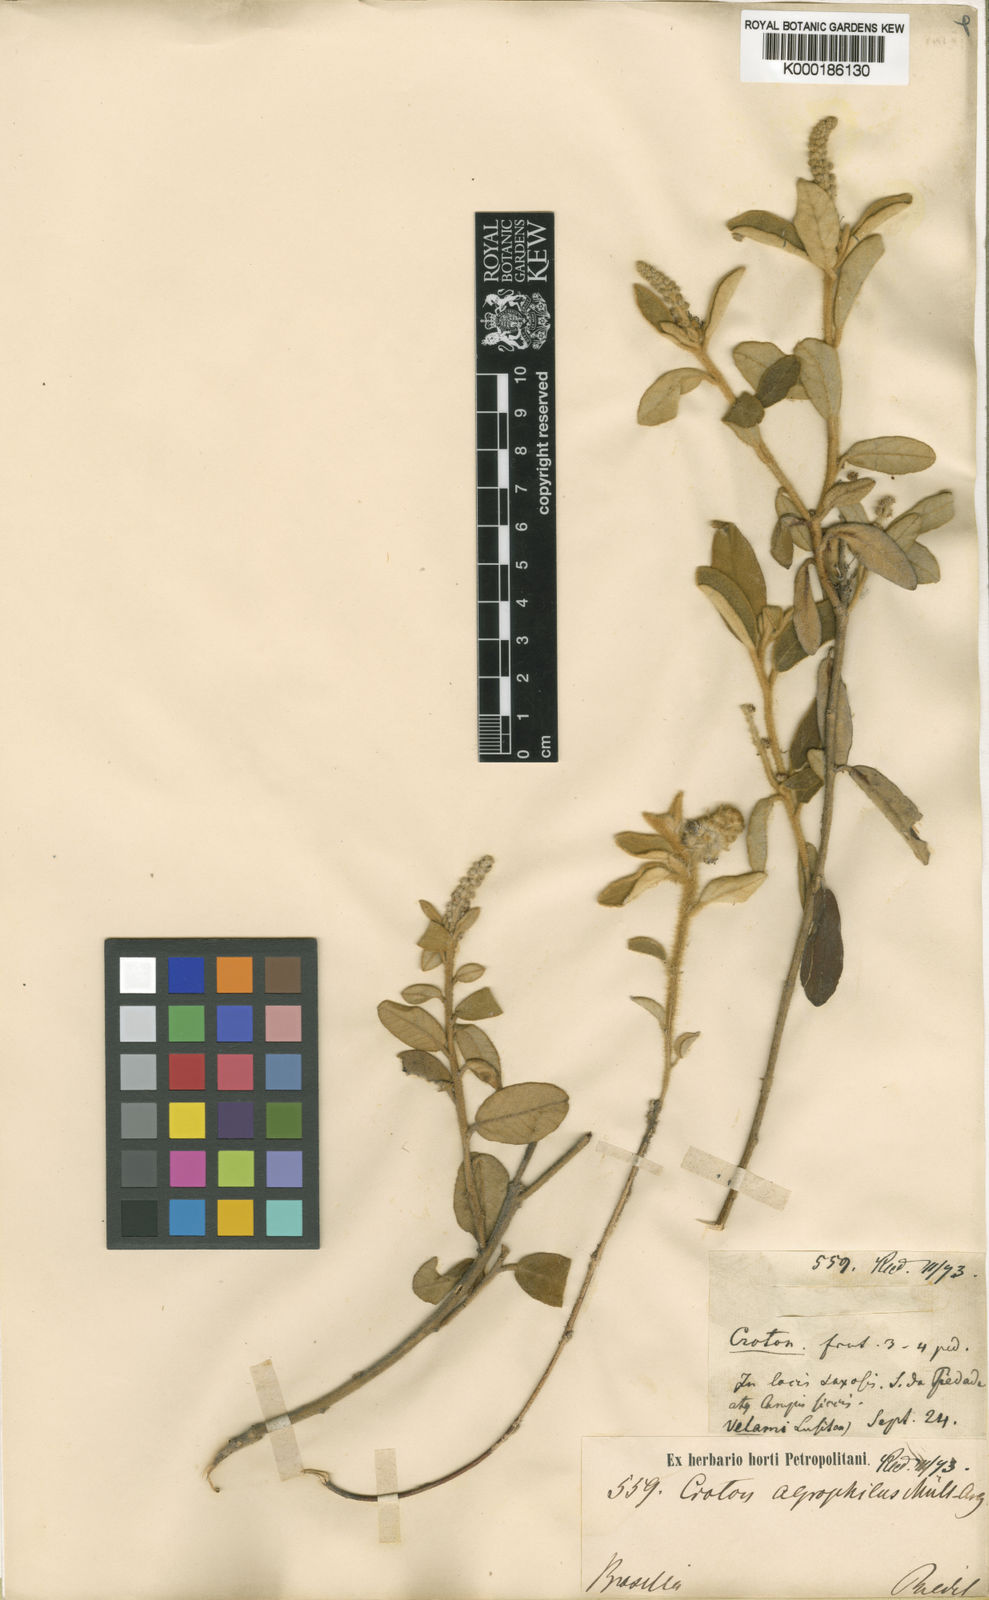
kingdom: Plantae
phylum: Tracheophyta
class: Magnoliopsida
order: Malpighiales
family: Euphorbiaceae
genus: Croton
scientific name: Croton
